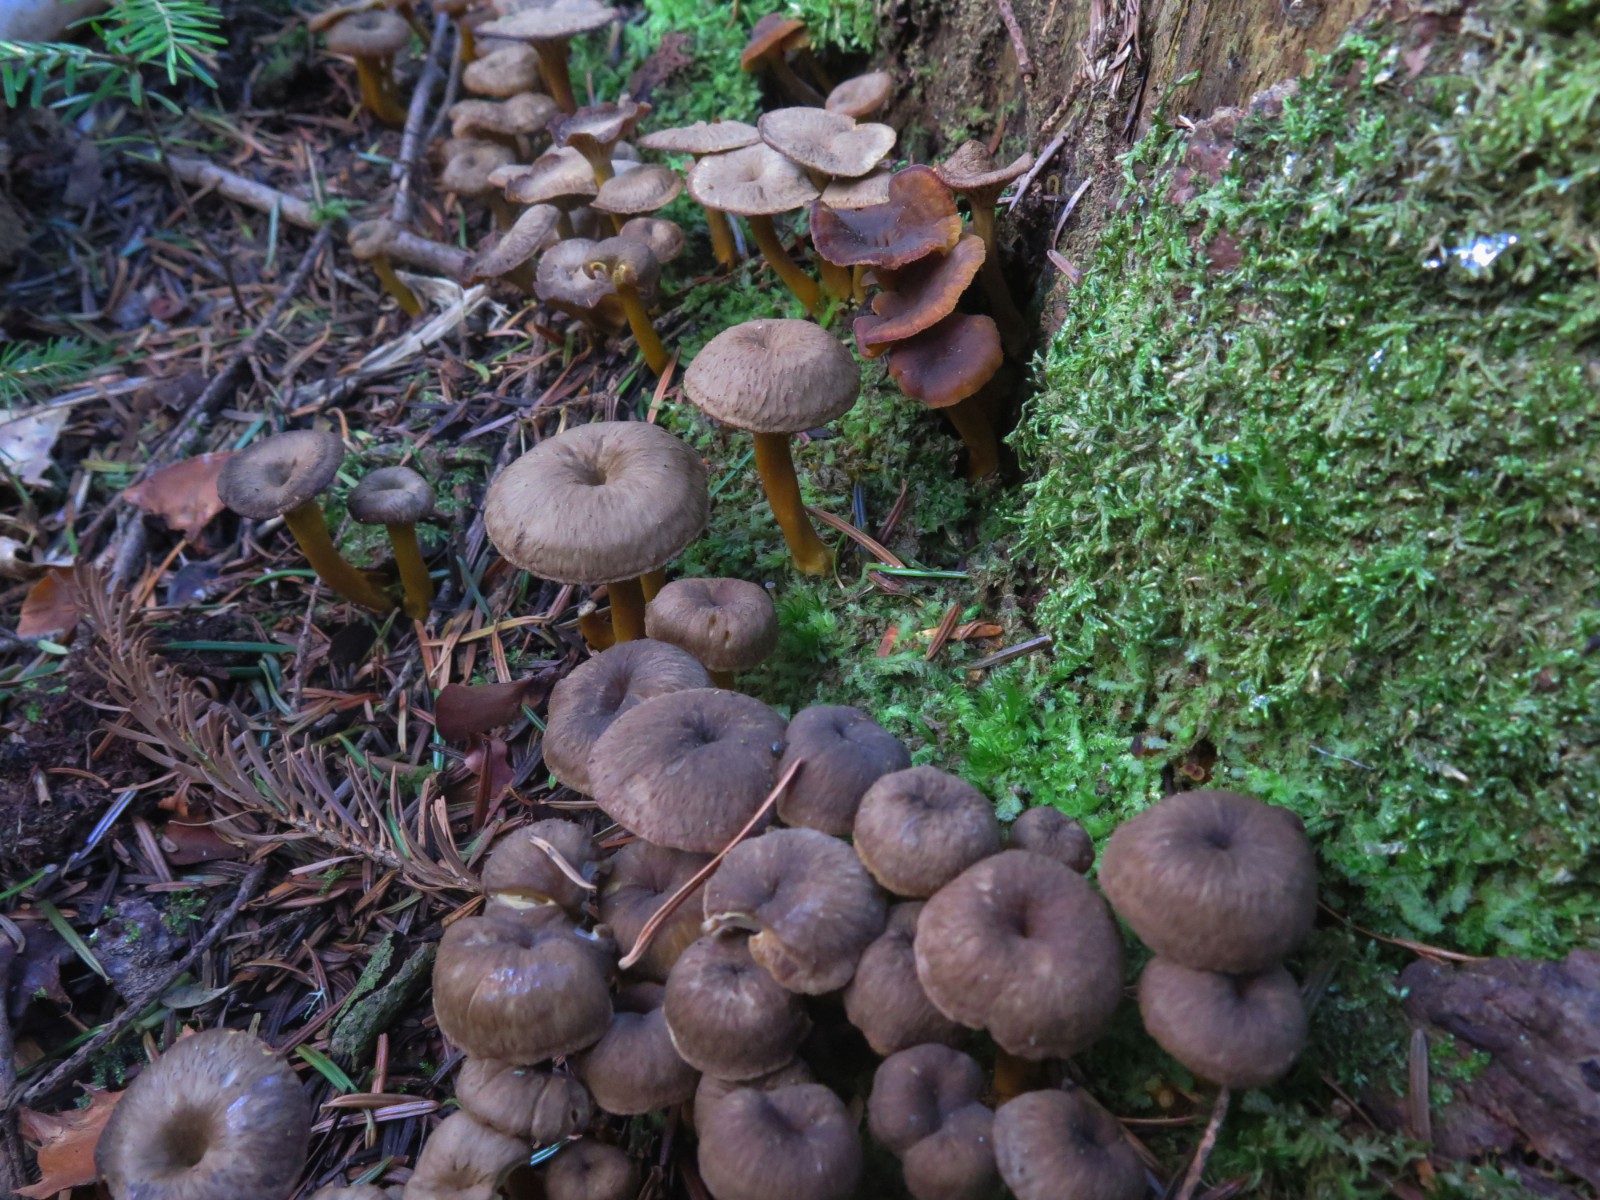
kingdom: Fungi
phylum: Basidiomycota
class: Agaricomycetes
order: Cantharellales
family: Hydnaceae
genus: Craterellus
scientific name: Craterellus tubaeformis
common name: tragt-kantarel
